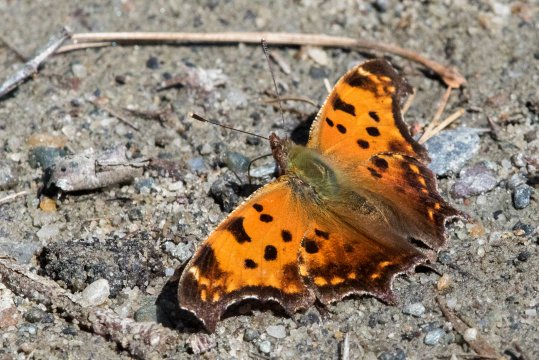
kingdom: Animalia
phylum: Arthropoda
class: Insecta
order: Lepidoptera
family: Nymphalidae
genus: Polygonia
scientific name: Polygonia comma
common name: Eastern Comma
